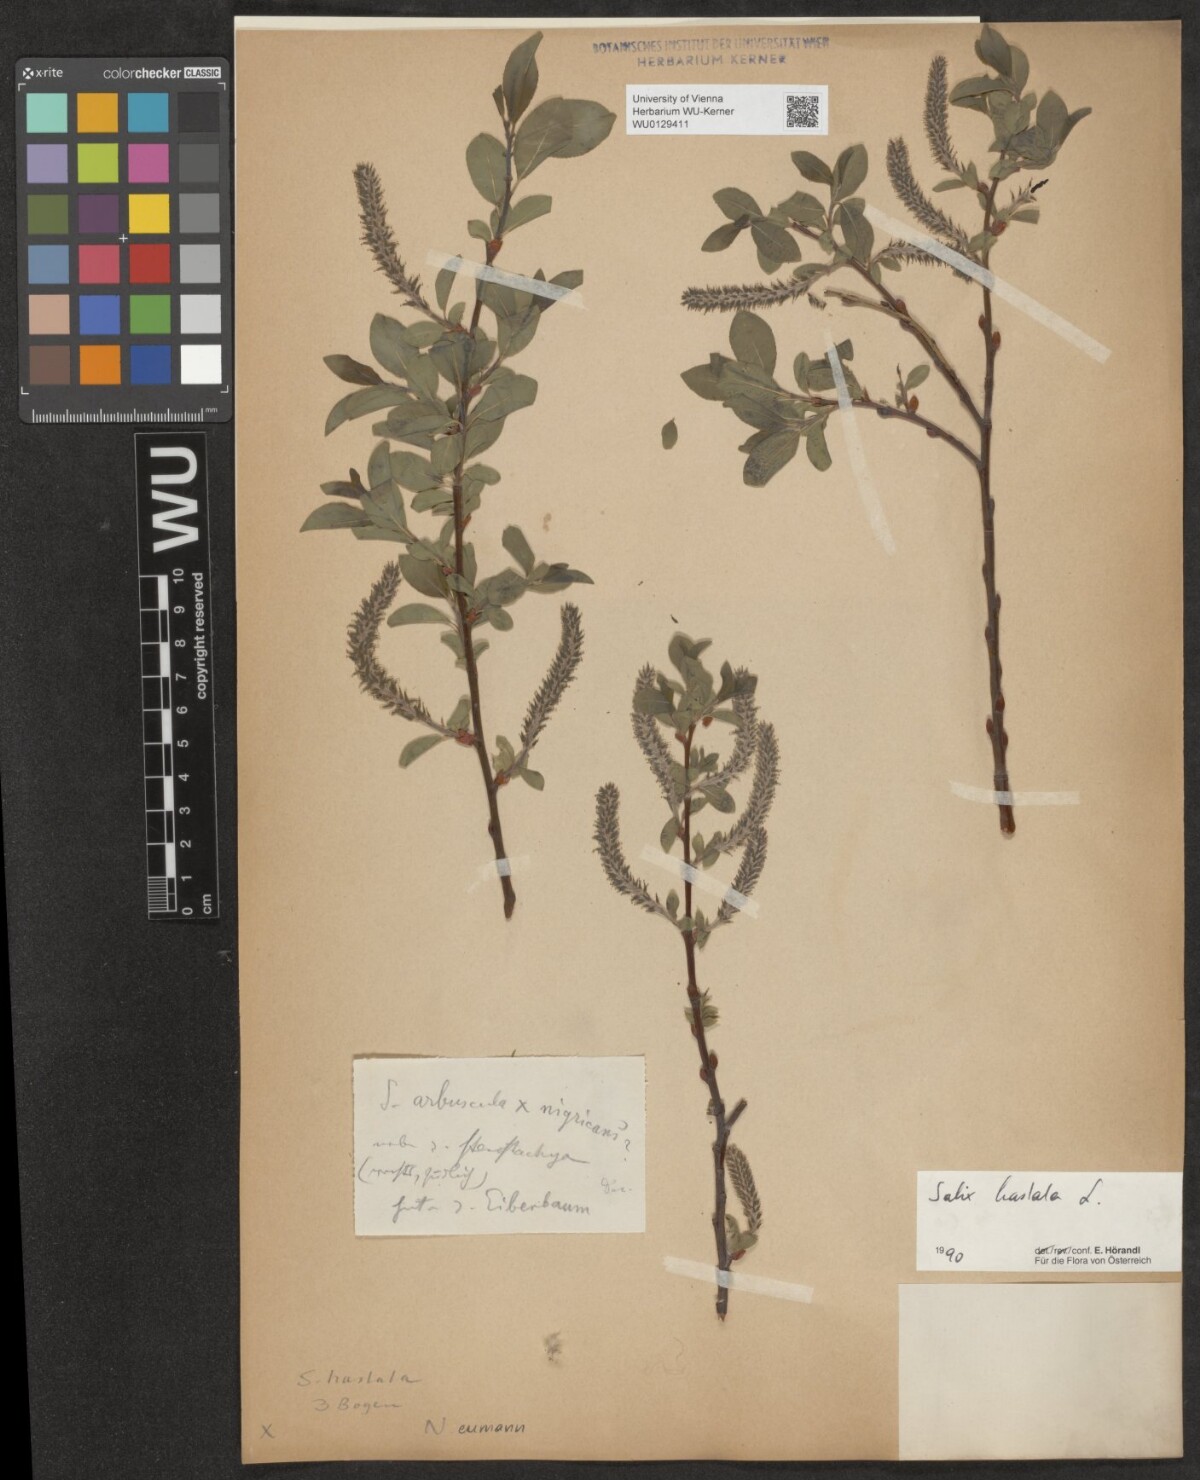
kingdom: Plantae
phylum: Tracheophyta
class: Magnoliopsida
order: Malpighiales
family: Salicaceae
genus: Salix
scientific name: Salix hastata
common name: Halberd willow
